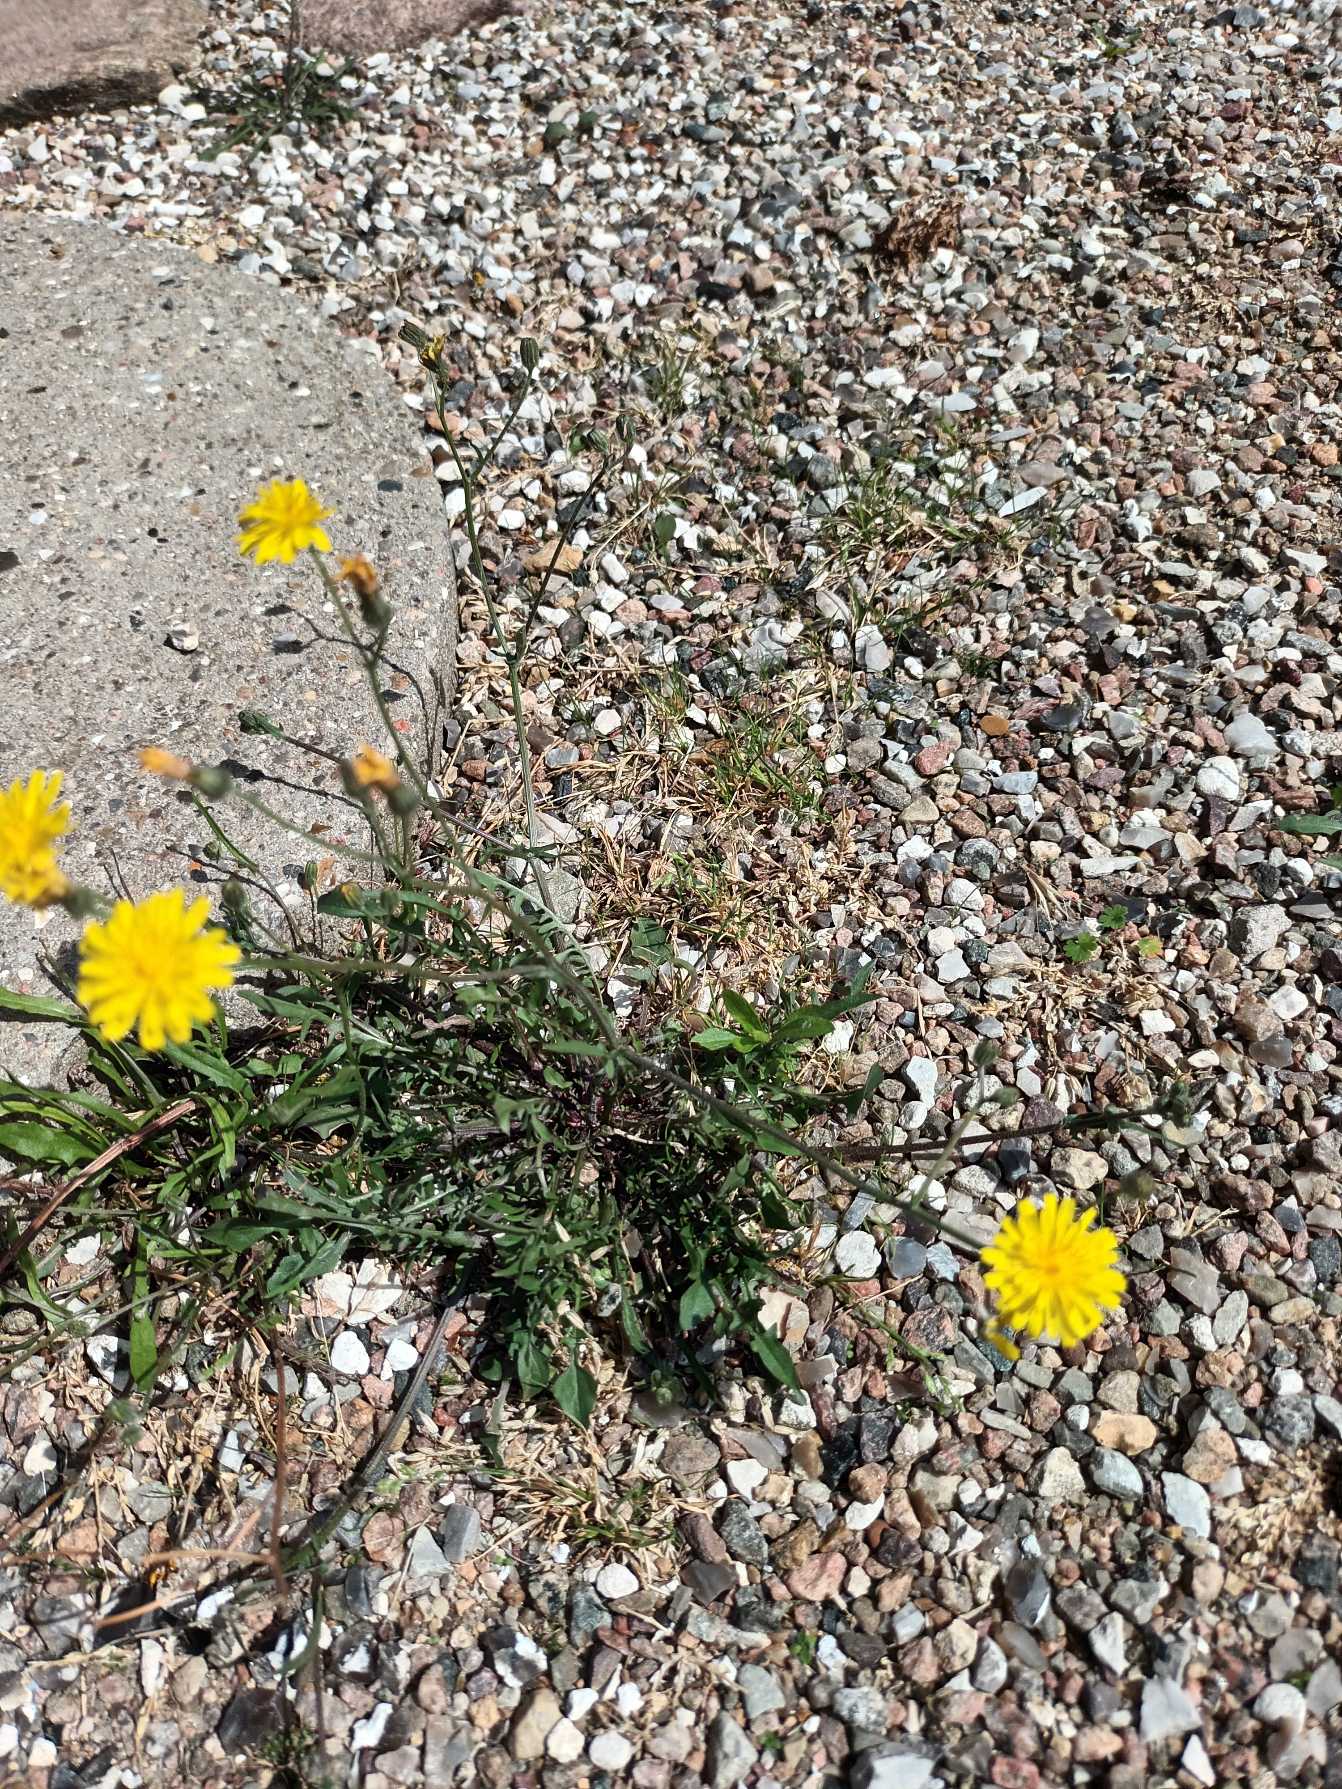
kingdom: Plantae
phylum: Tracheophyta
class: Magnoliopsida
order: Asterales
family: Asteraceae
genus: Crepis
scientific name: Crepis capillaris
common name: Grøn høgeskæg
